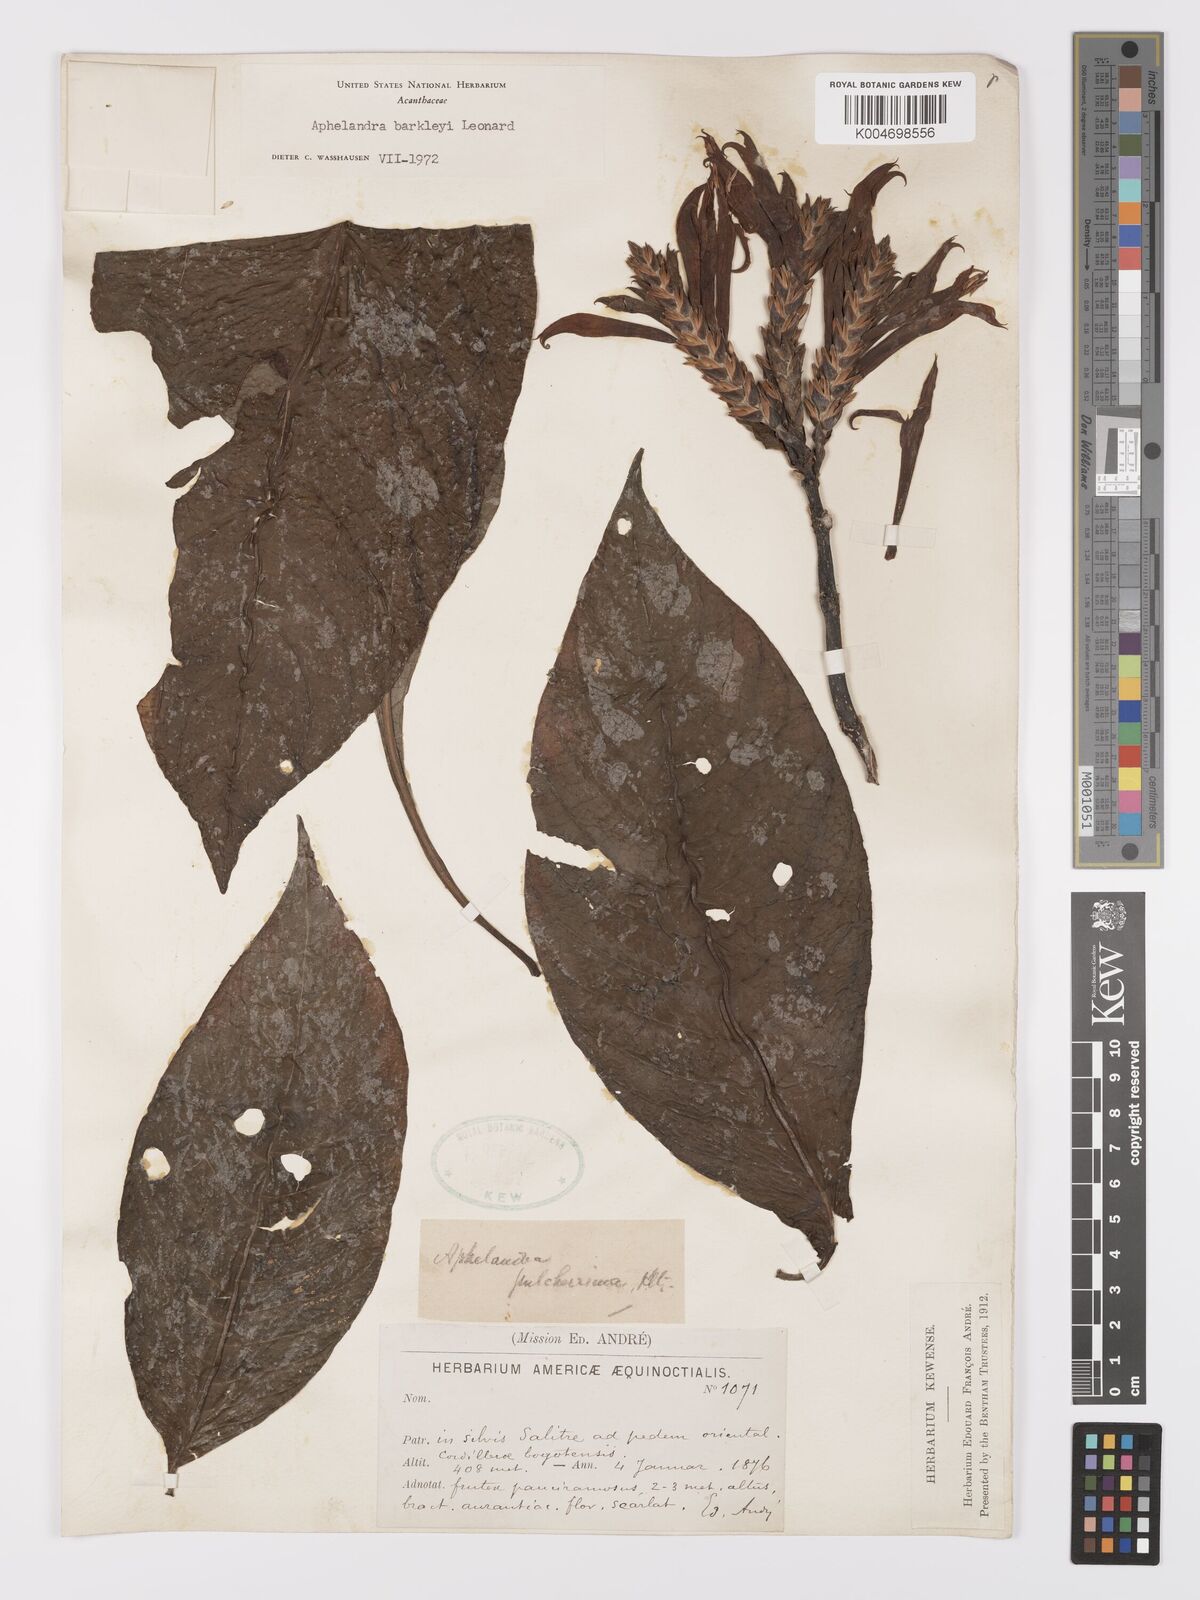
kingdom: Plantae
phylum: Tracheophyta
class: Magnoliopsida
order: Lamiales
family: Acanthaceae
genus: Aphelandra
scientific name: Aphelandra barkleyi
